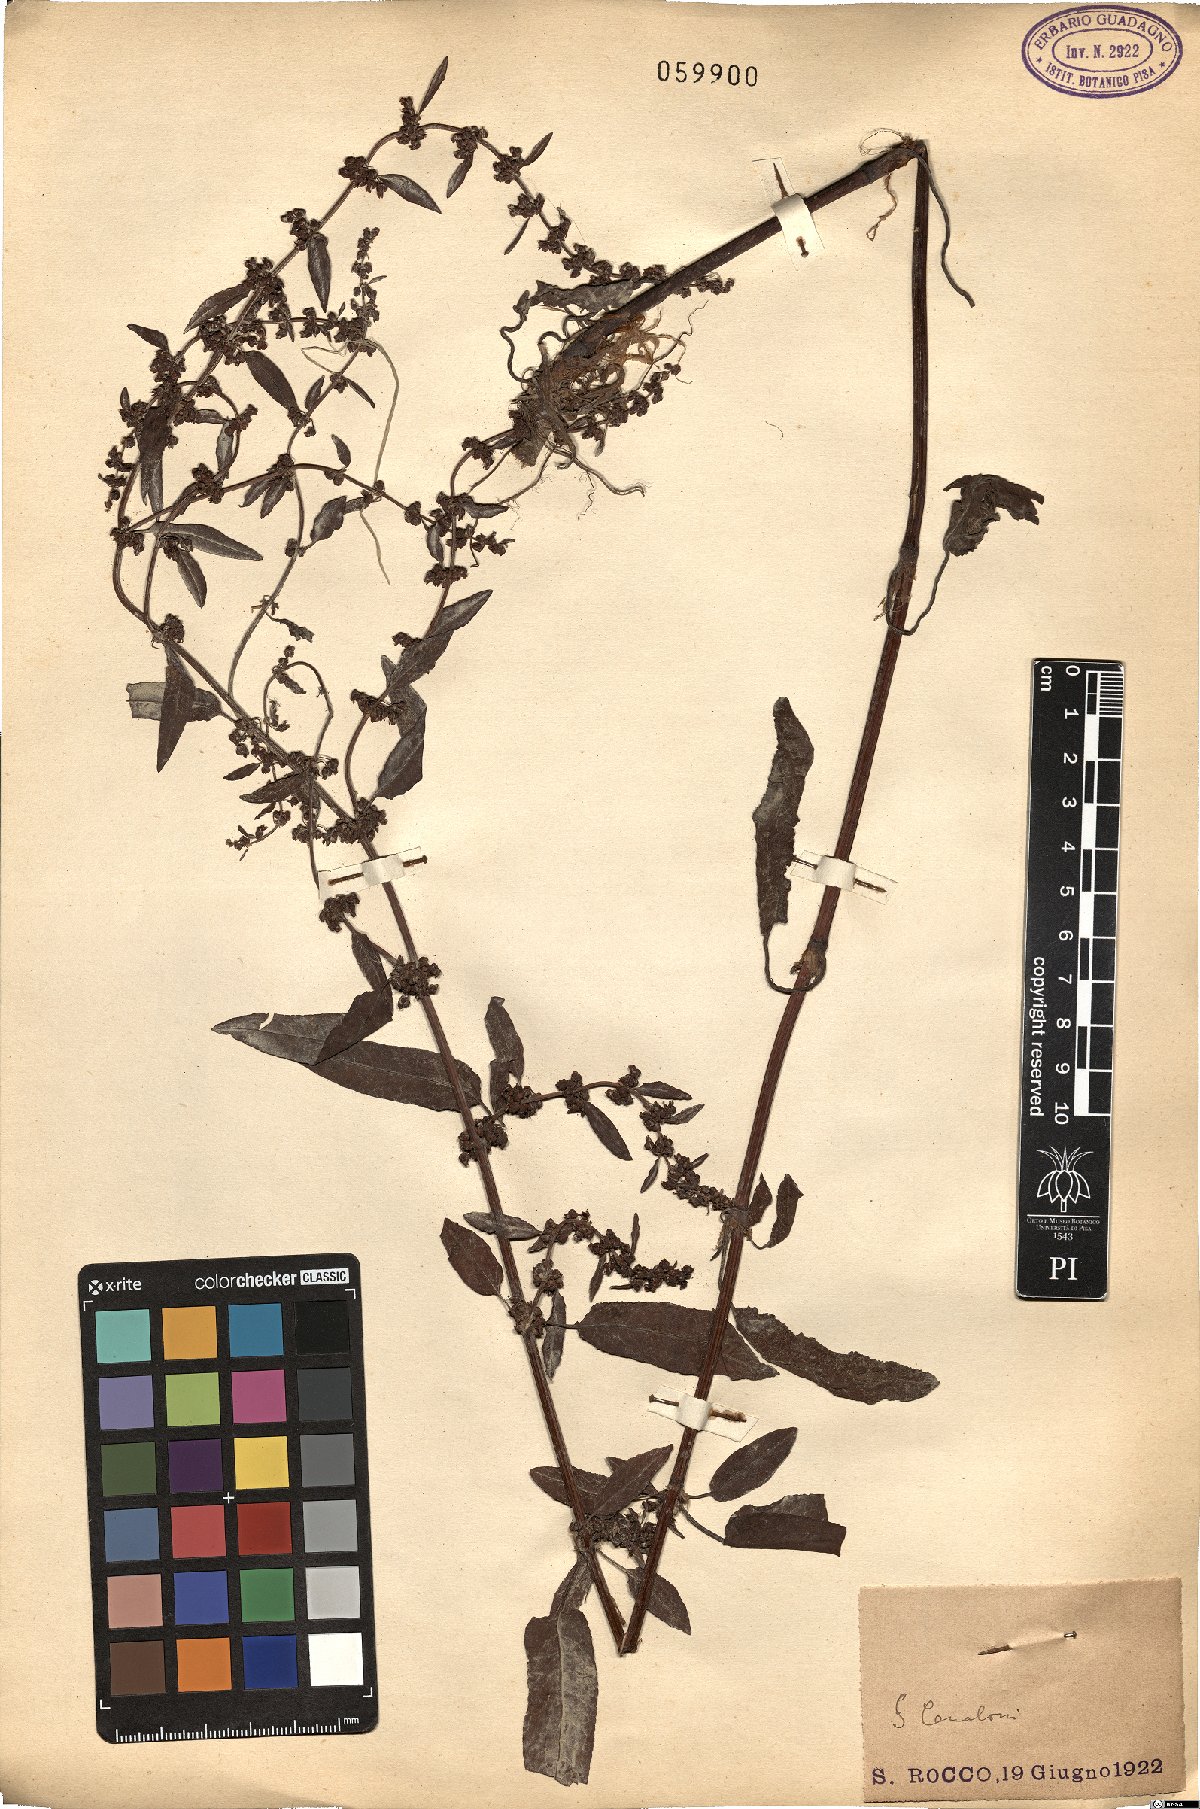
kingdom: Plantae
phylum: Tracheophyta
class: Magnoliopsida
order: Caryophyllales
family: Polygonaceae
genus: Persicaria
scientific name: Persicaria
